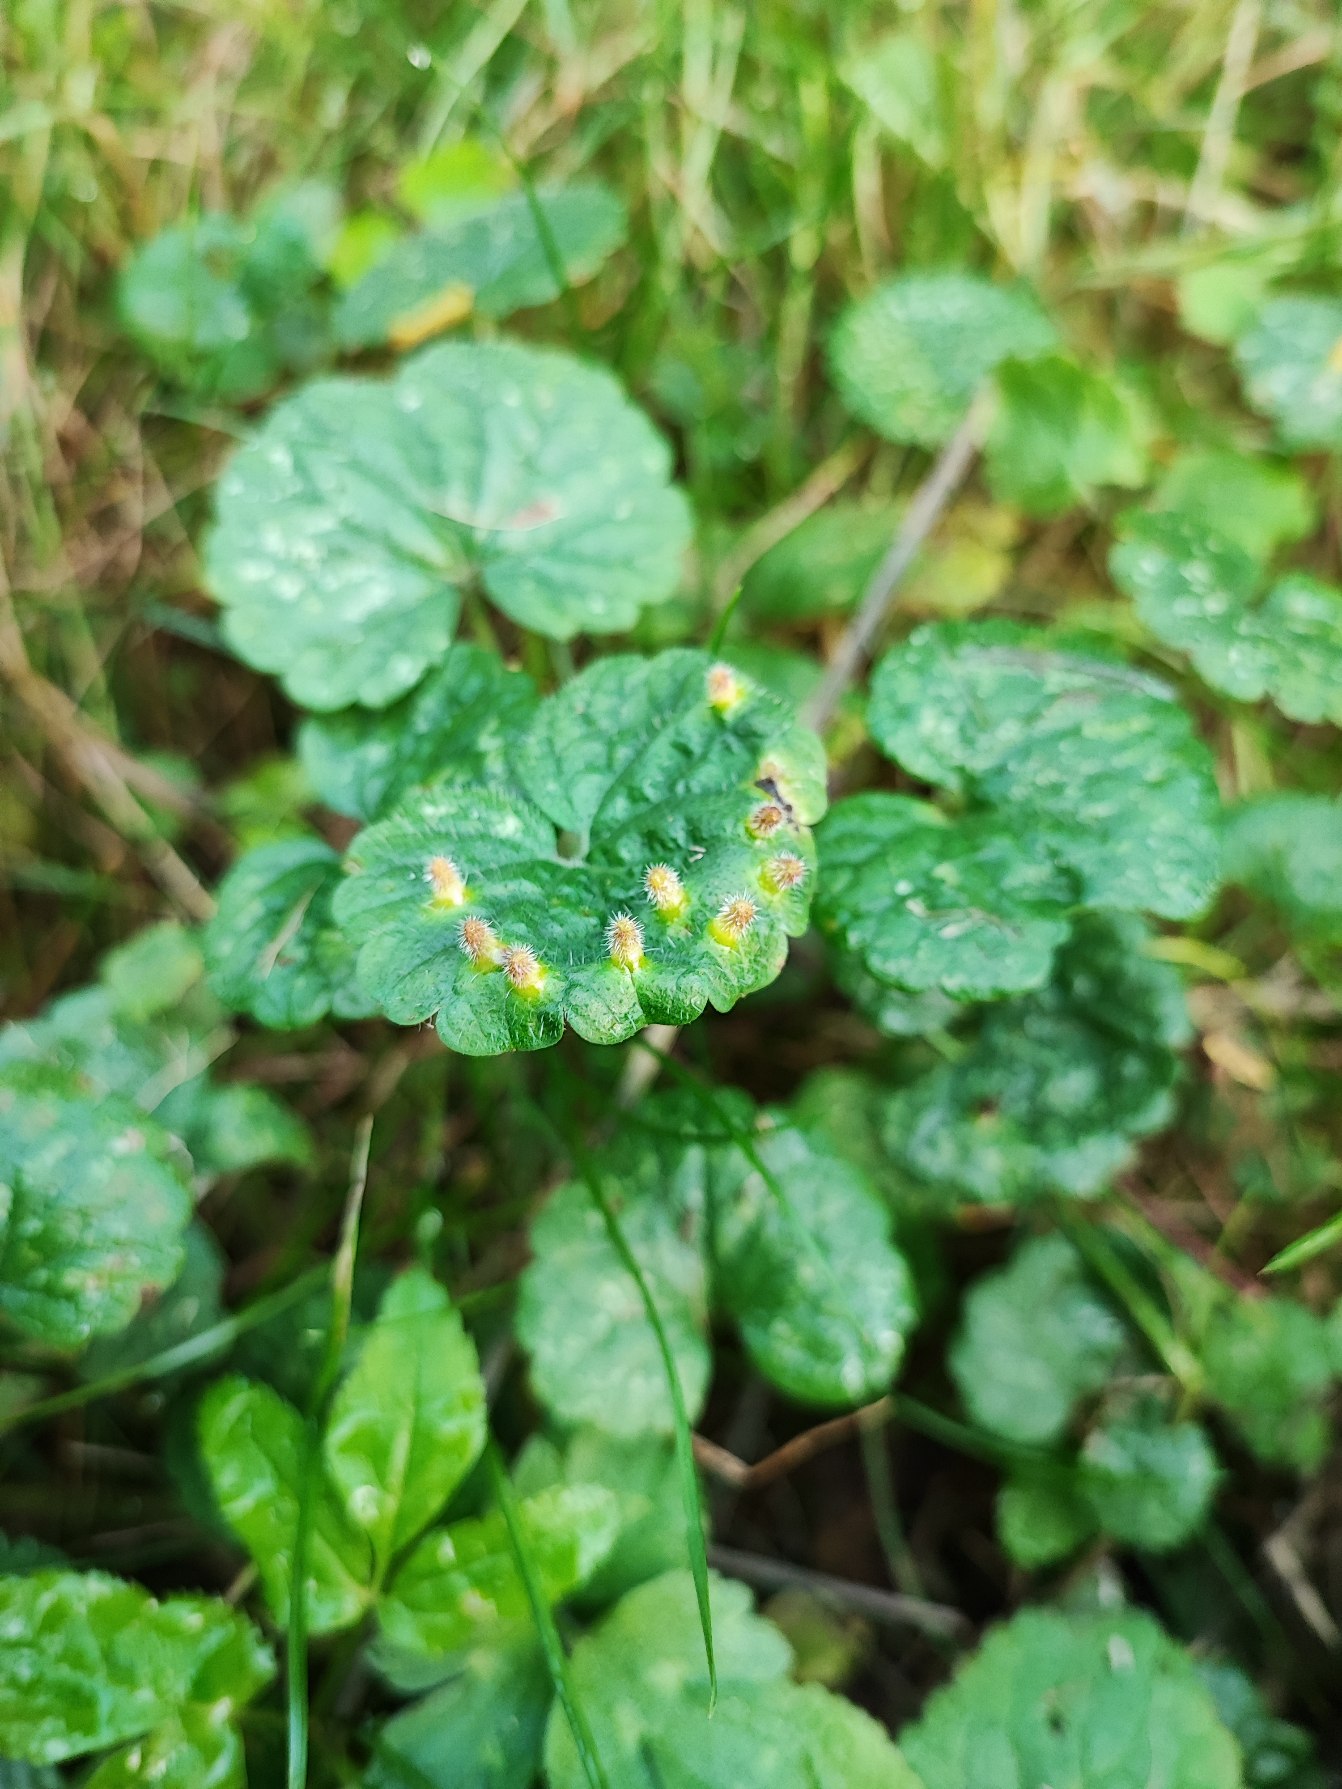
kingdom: Animalia
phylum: Arthropoda
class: Insecta
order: Diptera
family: Cecidomyiidae
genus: Rondaniola
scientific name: Rondaniola bursaria
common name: Hattifnatgalmyg
